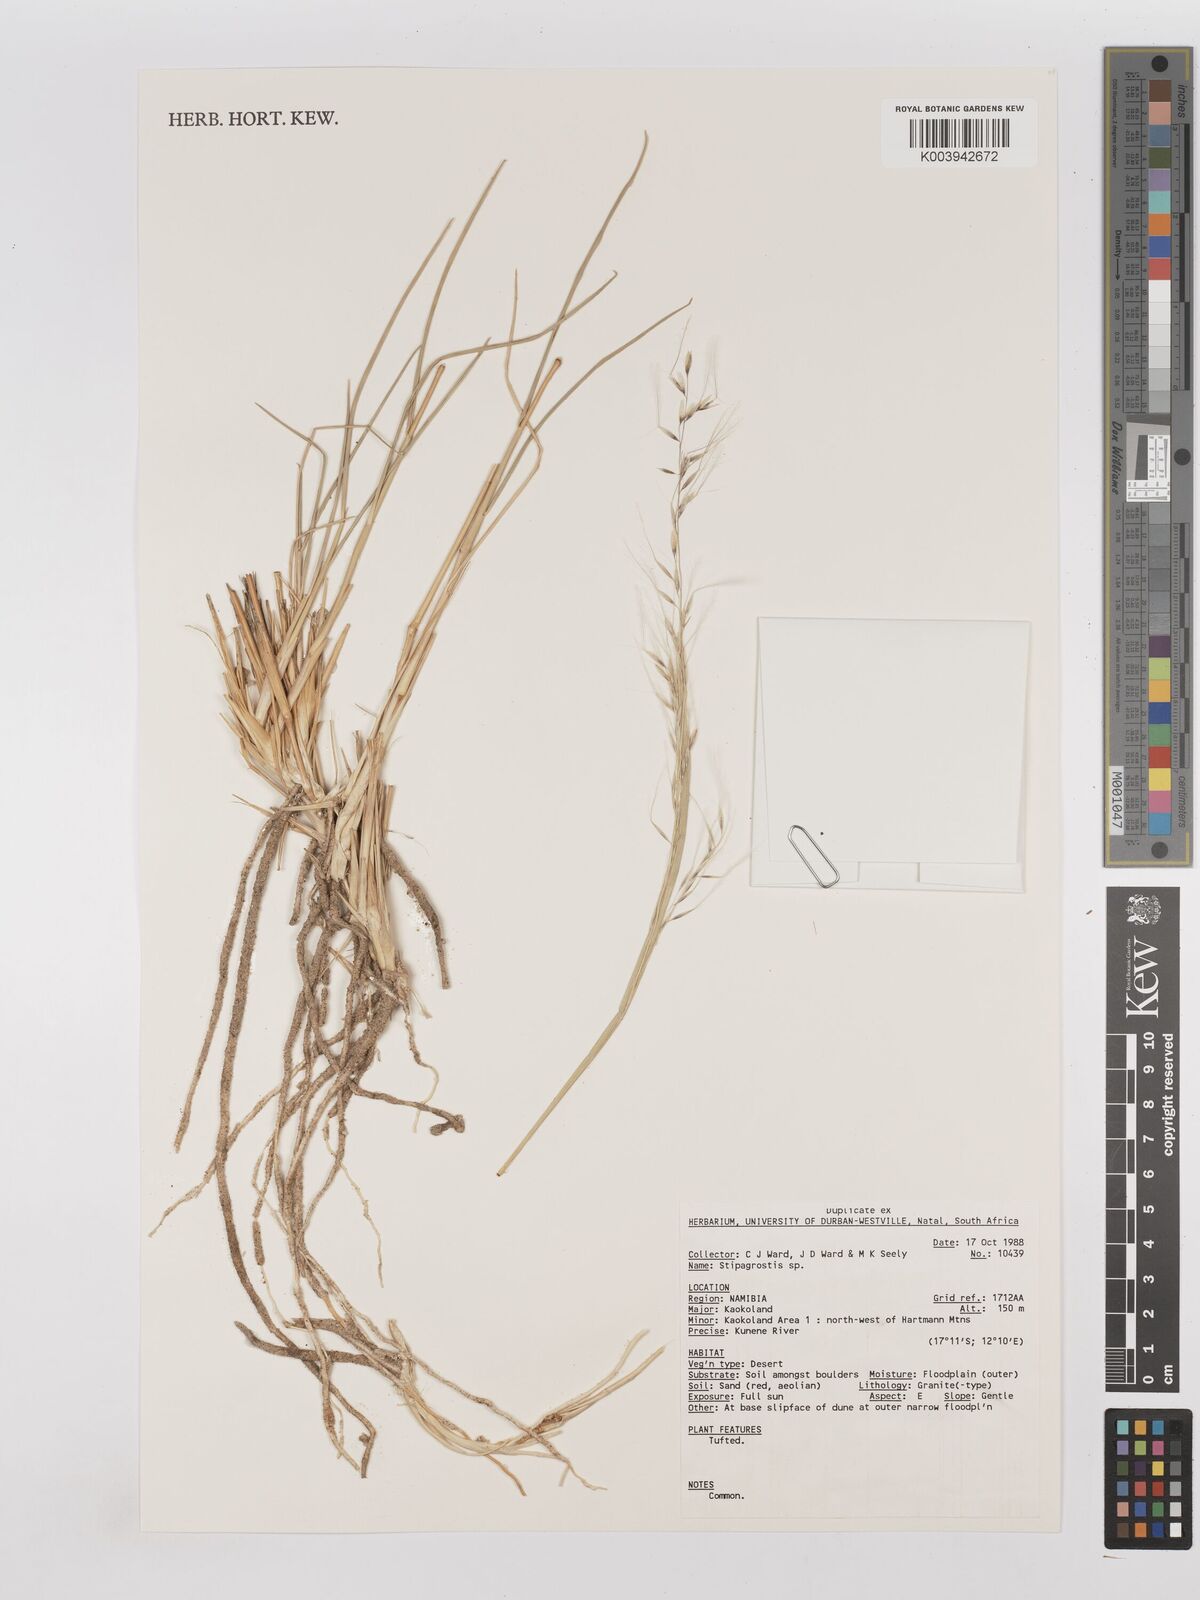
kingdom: Plantae
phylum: Tracheophyta
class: Liliopsida
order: Poales
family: Poaceae
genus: Stipagrostis
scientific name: Stipagrostis
